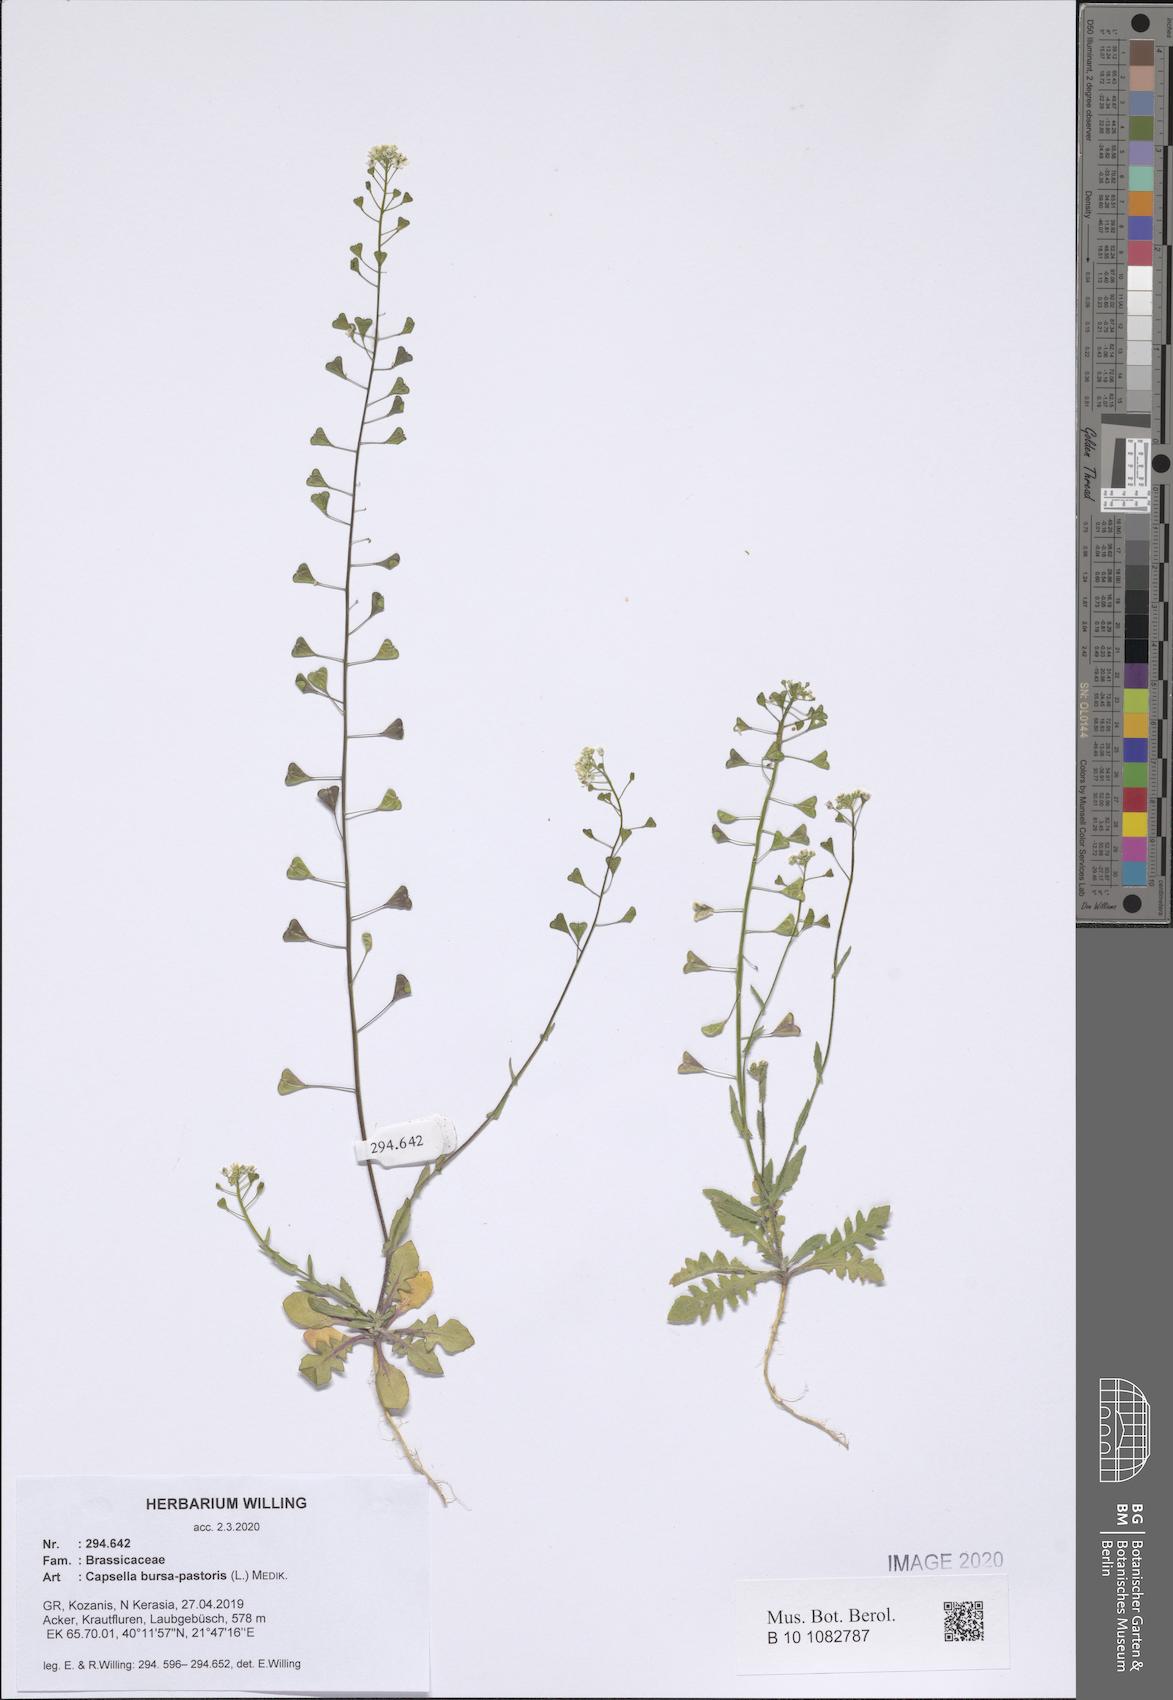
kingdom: Plantae
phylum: Tracheophyta
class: Magnoliopsida
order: Brassicales
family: Brassicaceae
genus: Capsella
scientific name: Capsella bursa-pastoris
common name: Shepherd's purse
